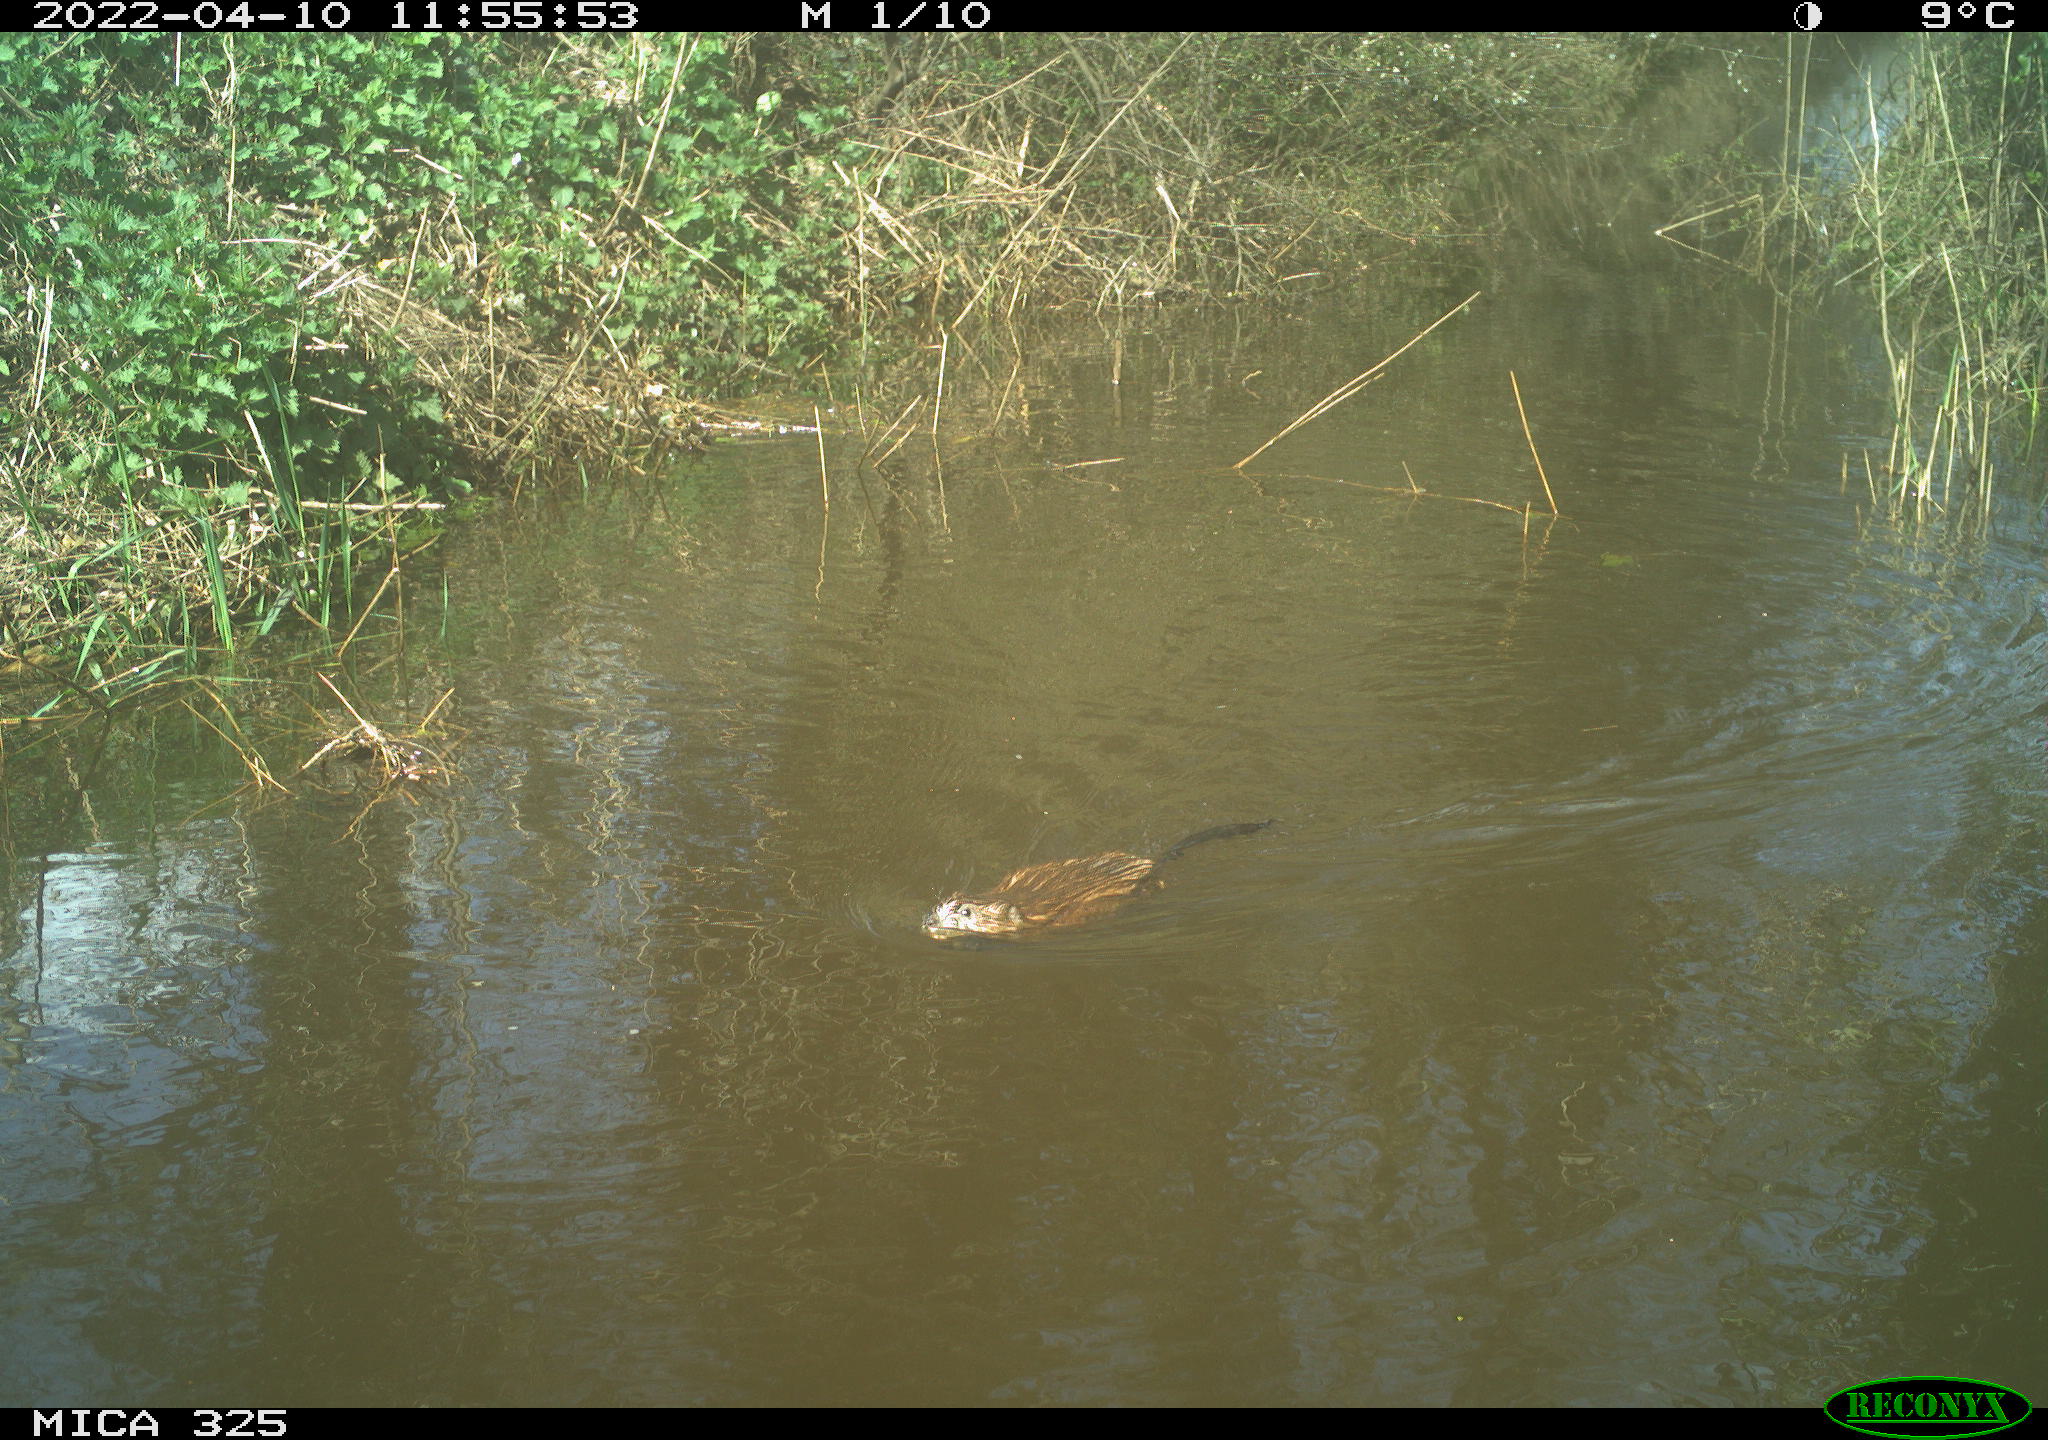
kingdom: Animalia
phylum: Chordata
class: Mammalia
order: Rodentia
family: Cricetidae
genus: Ondatra
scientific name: Ondatra zibethicus
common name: Muskrat
